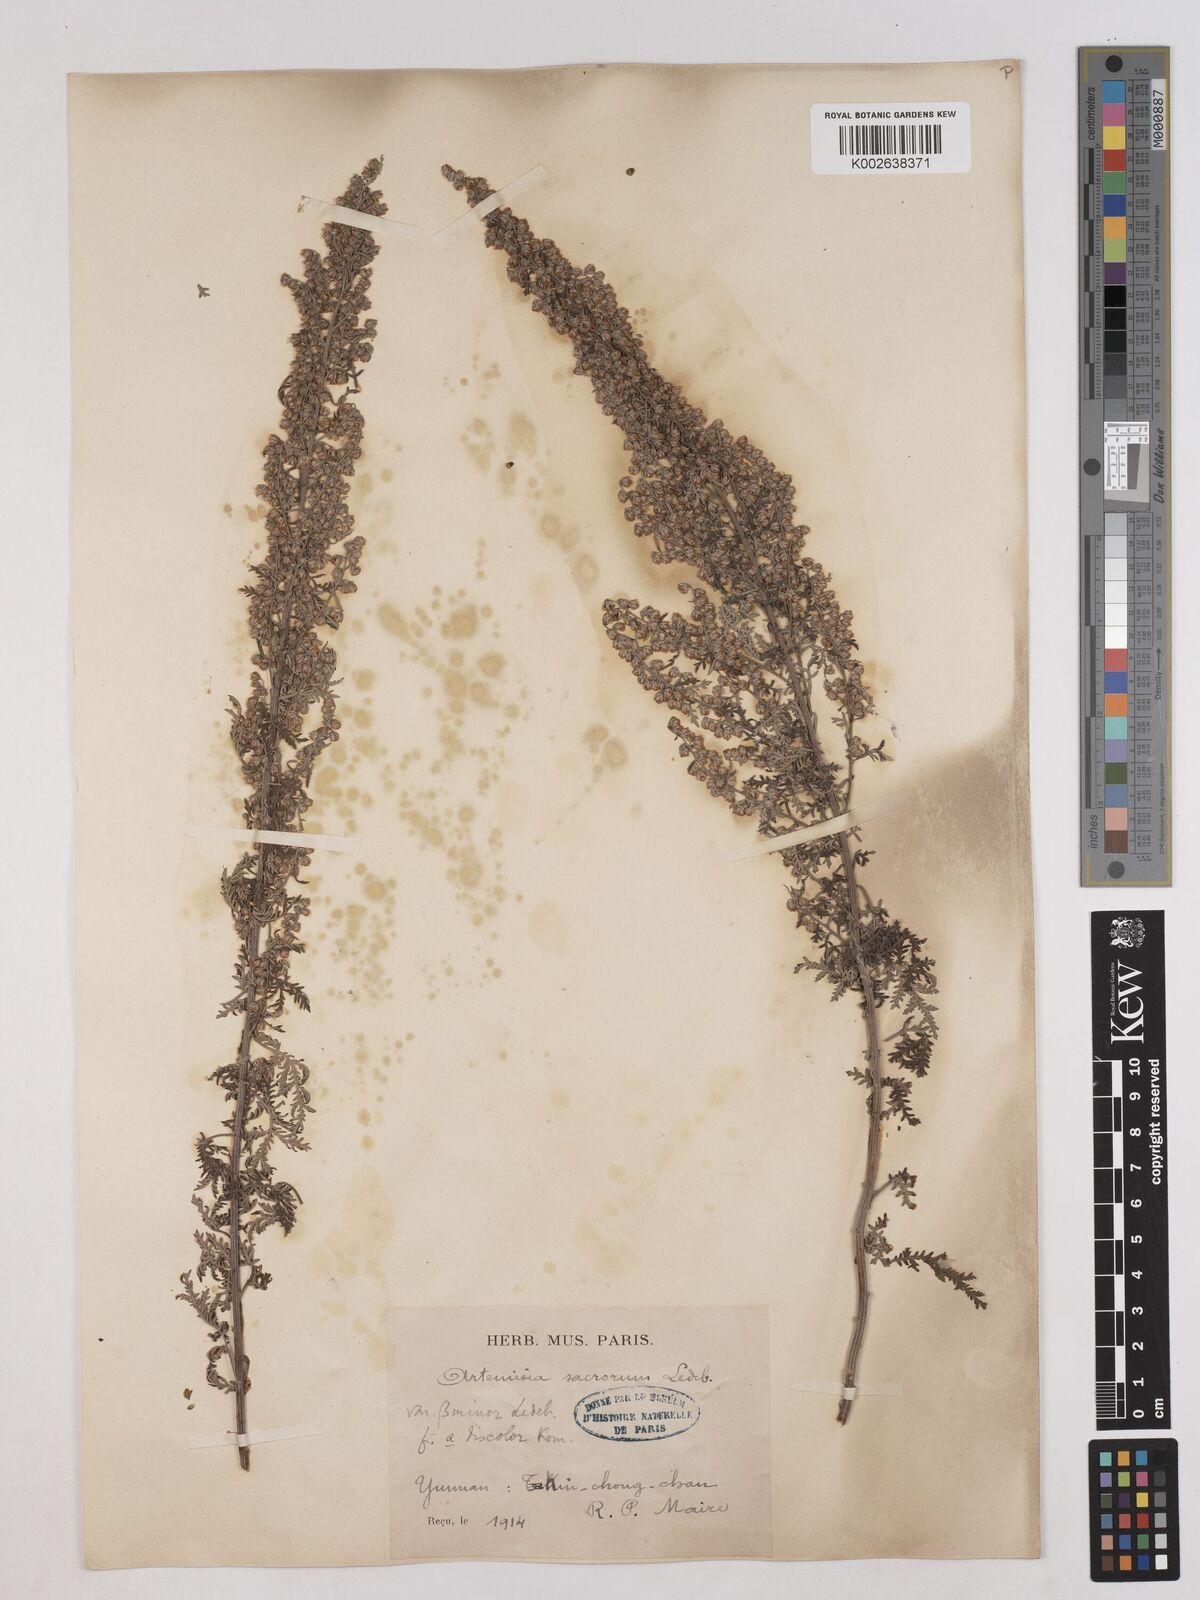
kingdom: Plantae
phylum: Tracheophyta
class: Magnoliopsida
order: Asterales
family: Asteraceae
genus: Artemisia
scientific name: Artemisia gmelinii
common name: Gmelin's wormwood
